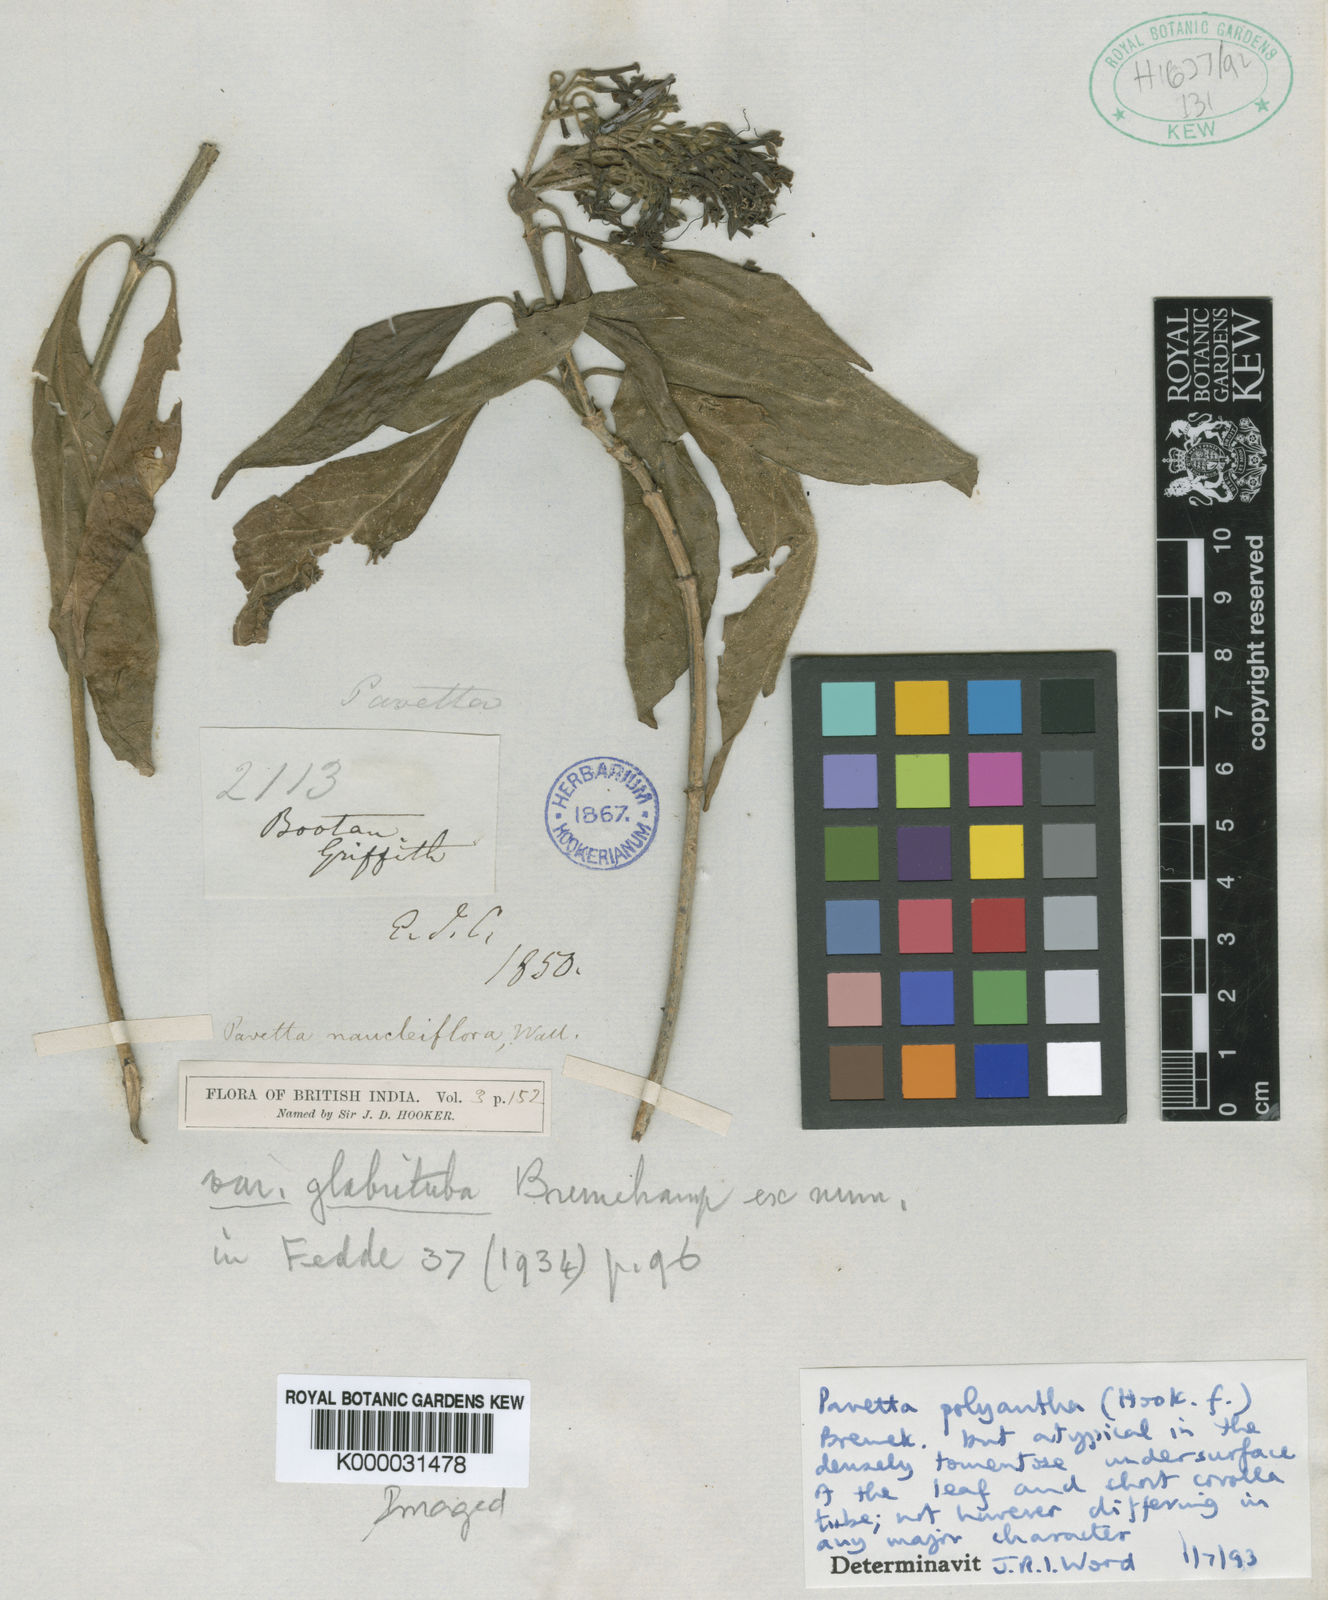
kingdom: Plantae
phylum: Tracheophyta
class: Magnoliopsida
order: Gentianales
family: Rubiaceae
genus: Pavetta
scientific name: Pavetta tomentosa
